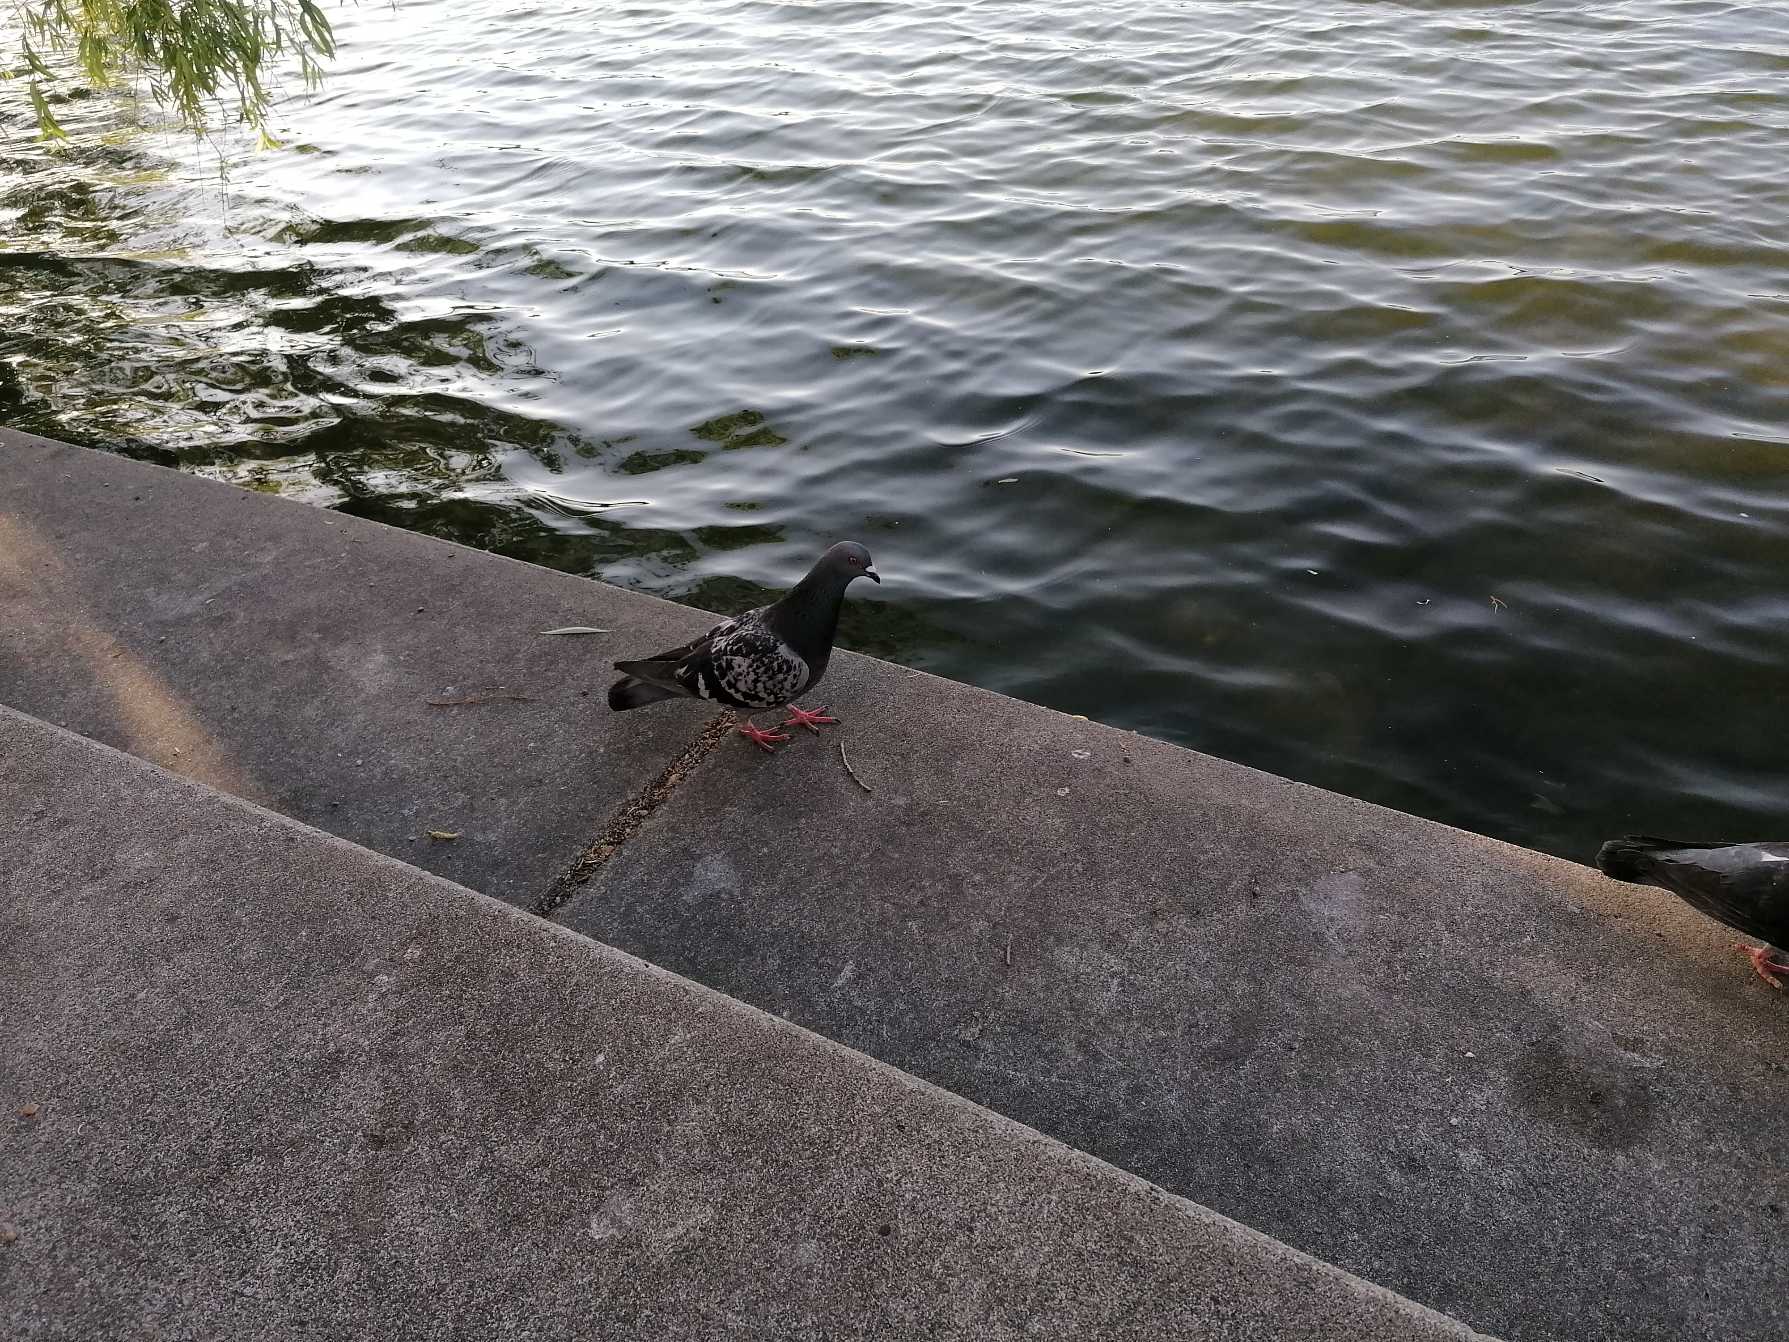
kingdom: Animalia
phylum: Chordata
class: Aves
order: Columbiformes
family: Columbidae
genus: Columba
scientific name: Columba livia
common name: Klippedue
